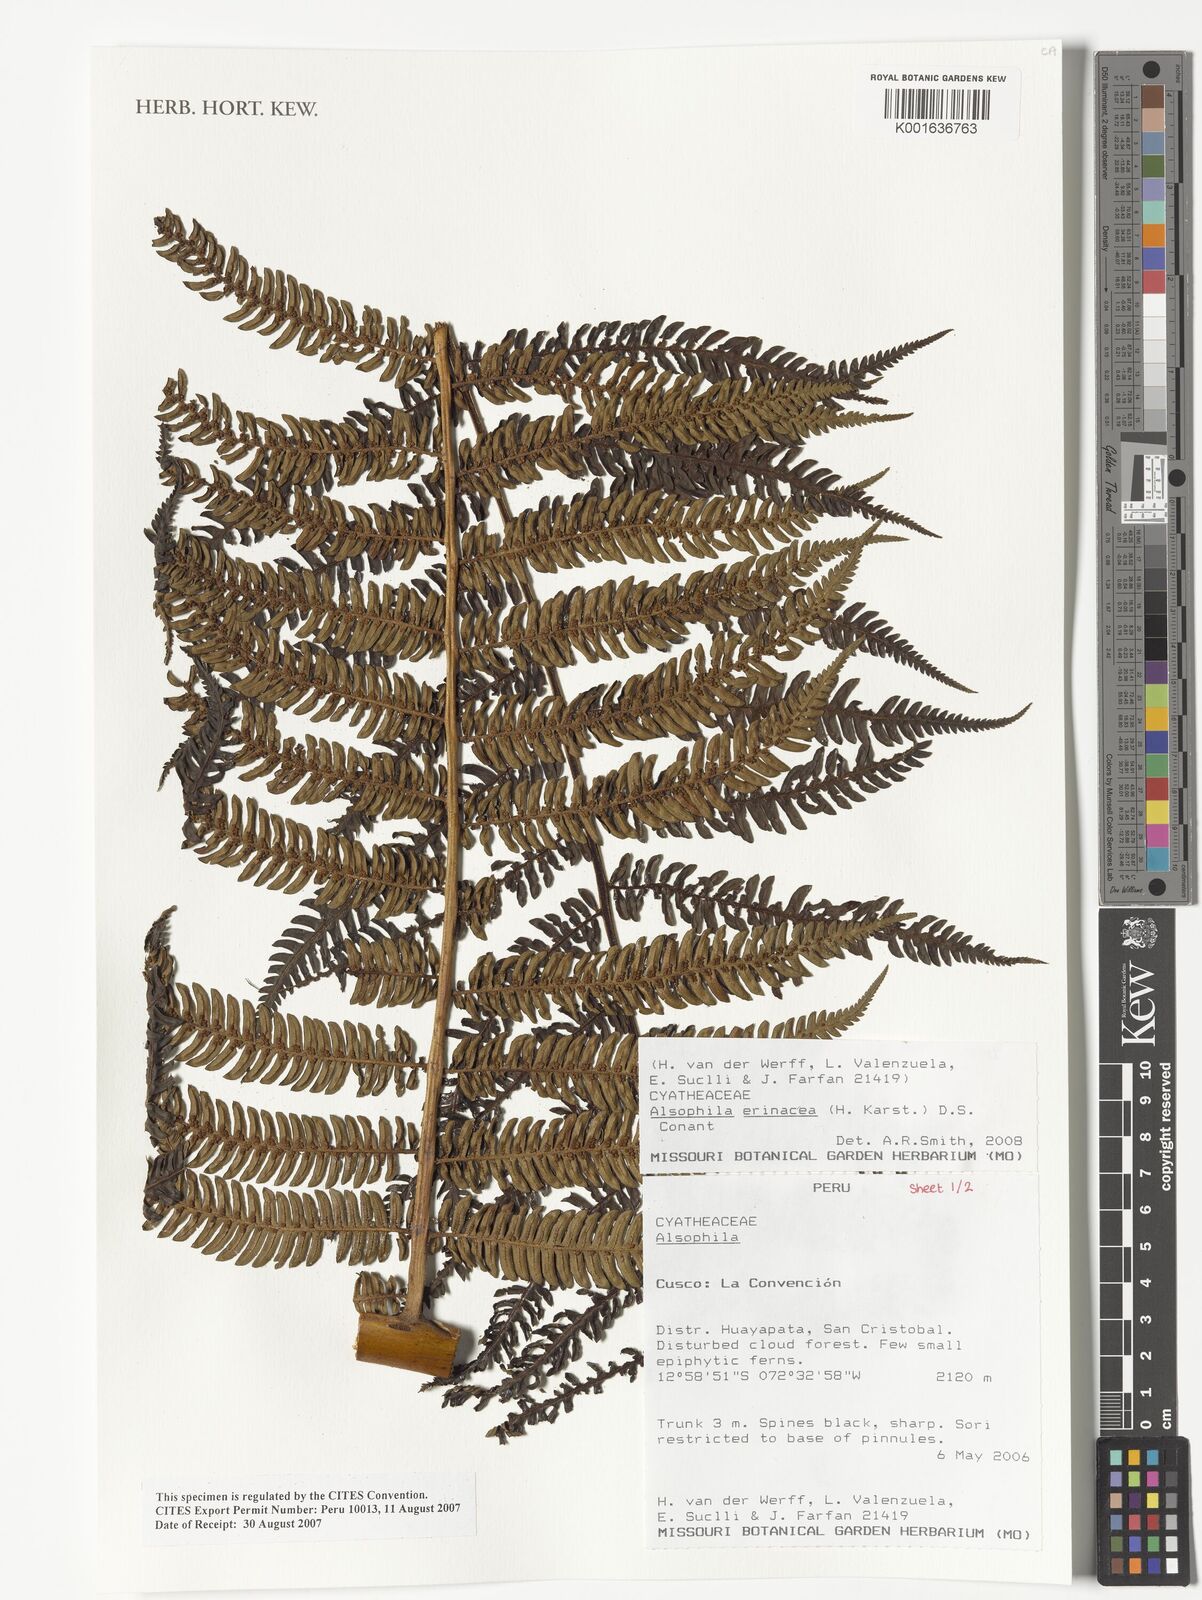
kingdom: Plantae
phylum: Tracheophyta
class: Polypodiopsida
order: Cyatheales
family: Cyatheaceae
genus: Alsophila
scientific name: Alsophila erinacea
